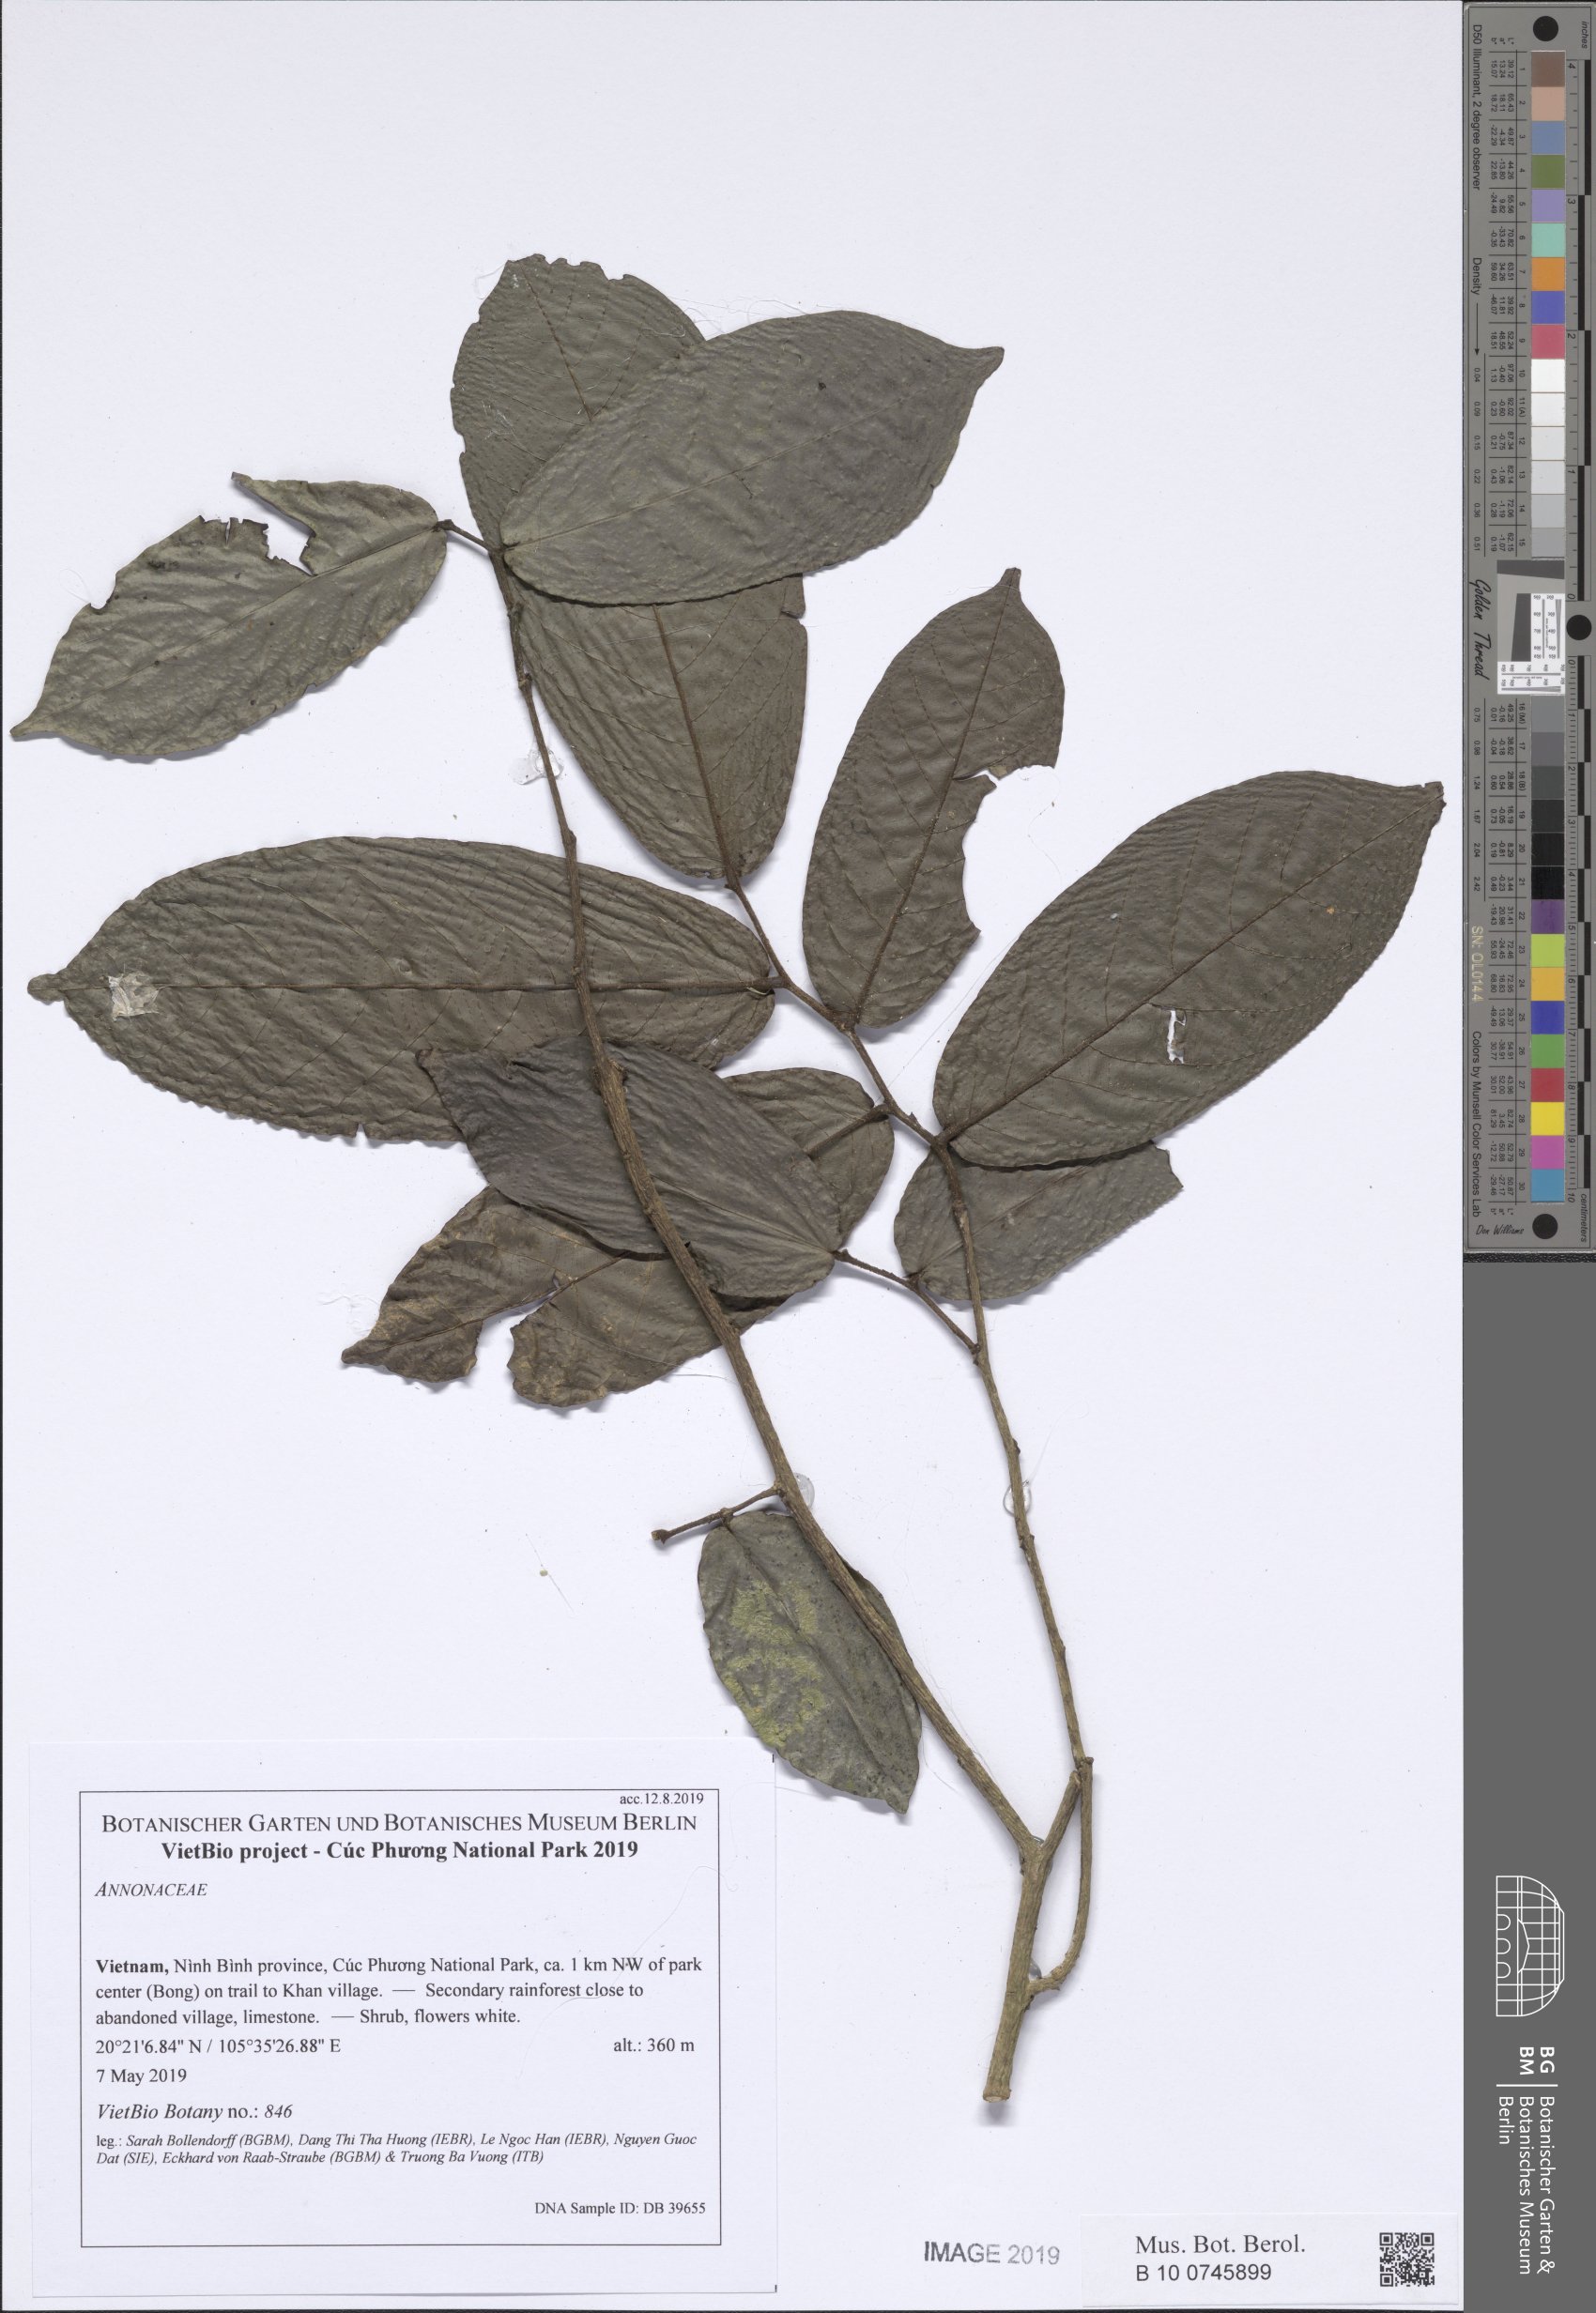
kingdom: Plantae
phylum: Tracheophyta
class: Magnoliopsida
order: Magnoliales
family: Annonaceae
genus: Polyalthia
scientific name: Polyalthia
